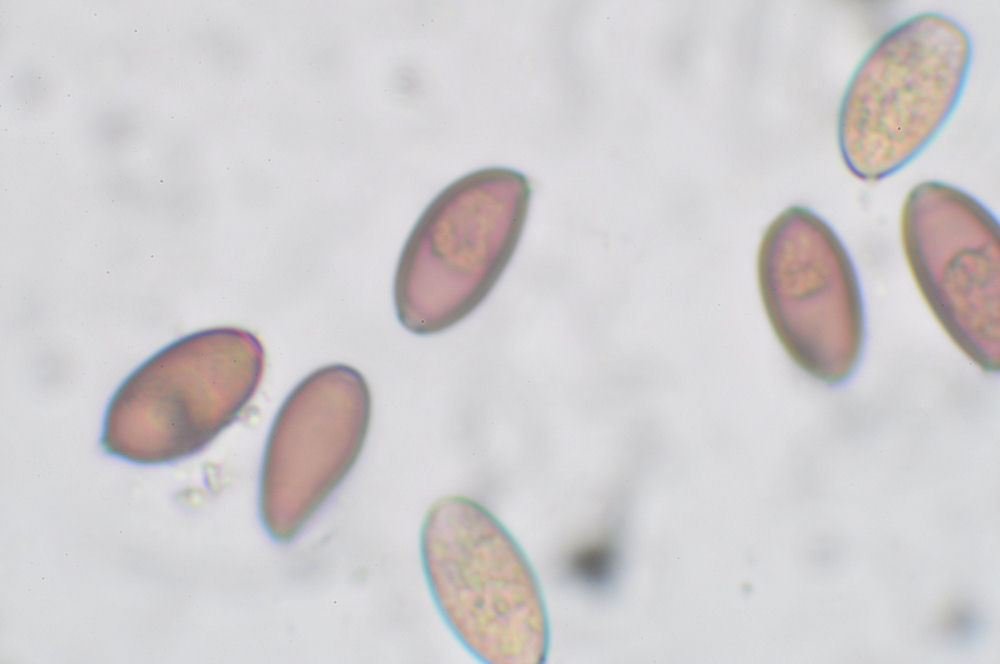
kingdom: Fungi
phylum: Basidiomycota
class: Agaricomycetes
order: Agaricales
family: Strophariaceae
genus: Protostropharia
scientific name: Protostropharia semiglobata
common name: halvkugleformet bredblad
